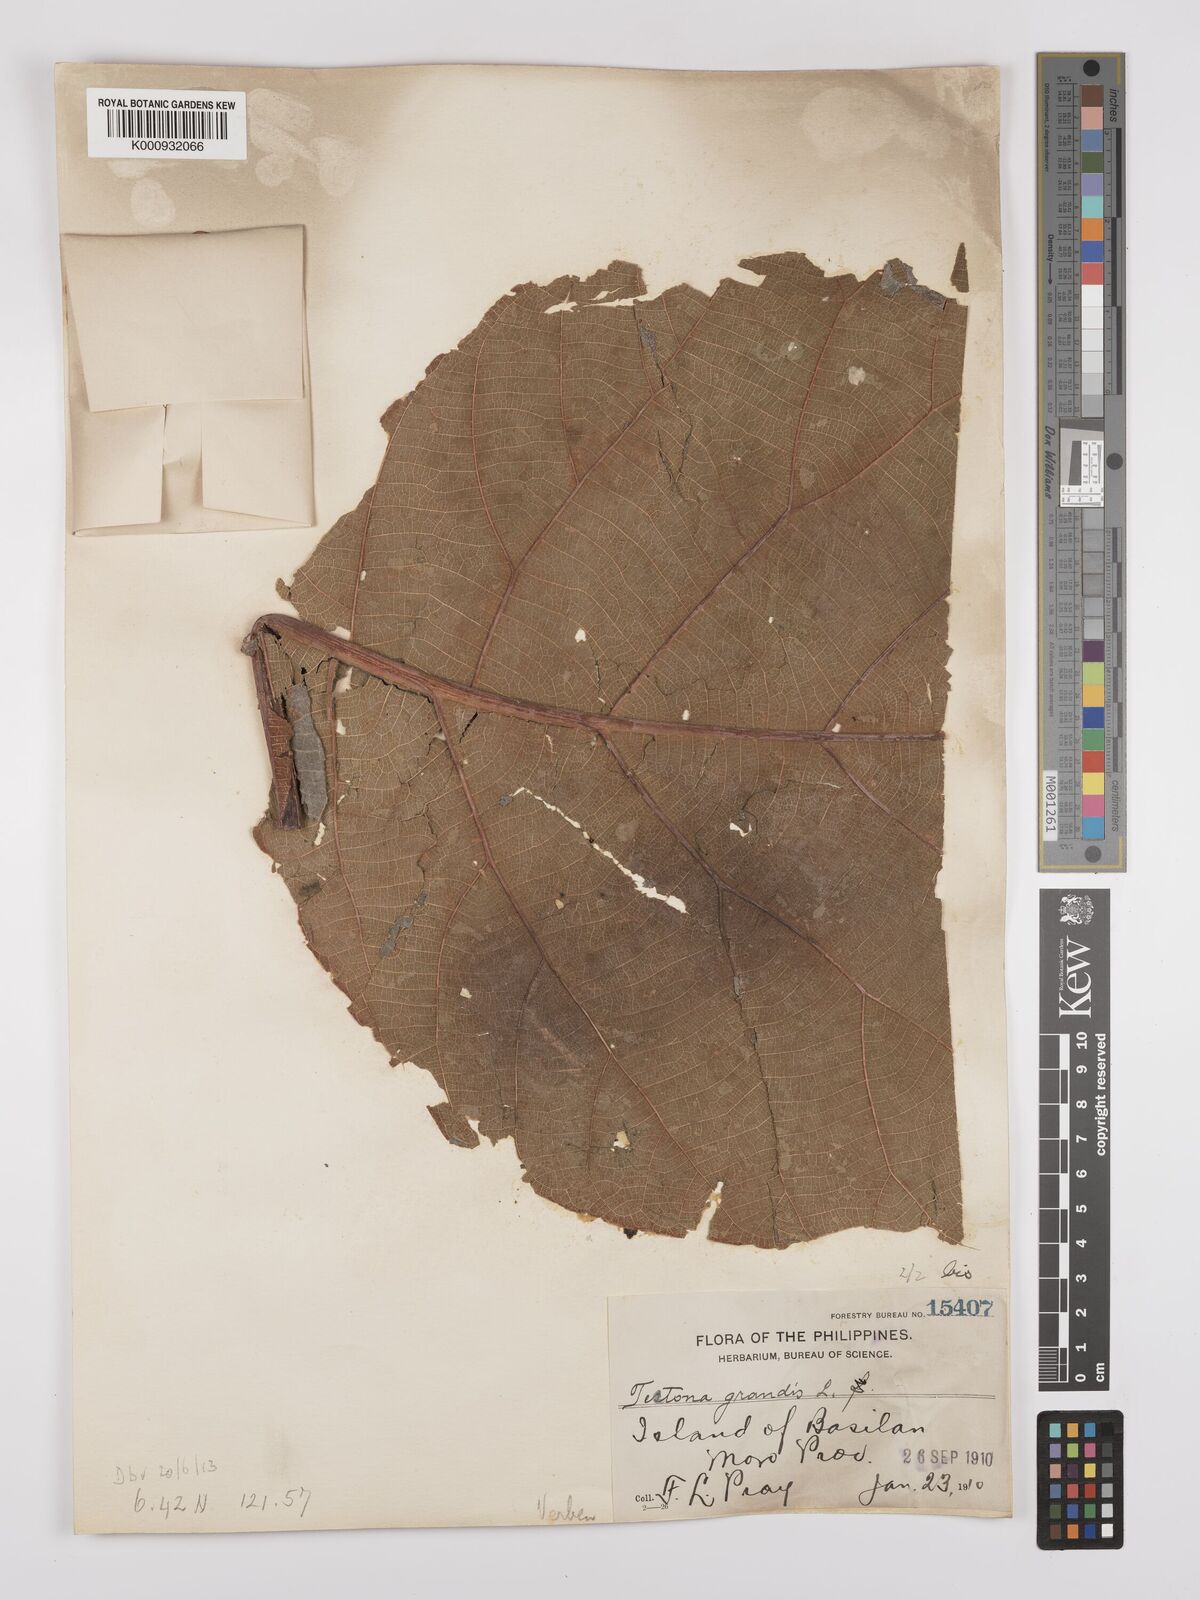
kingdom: Plantae
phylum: Tracheophyta
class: Magnoliopsida
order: Lamiales
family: Lamiaceae
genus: Tectona
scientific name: Tectona grandis
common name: Teak
